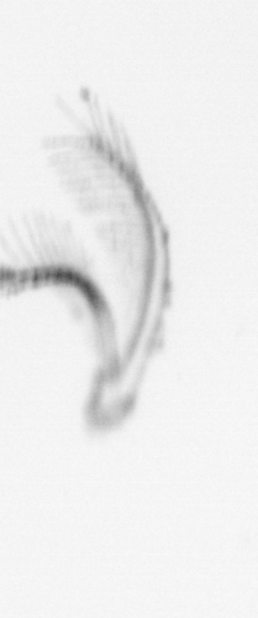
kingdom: Animalia
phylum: Arthropoda
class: Maxillopoda
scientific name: Maxillopoda
